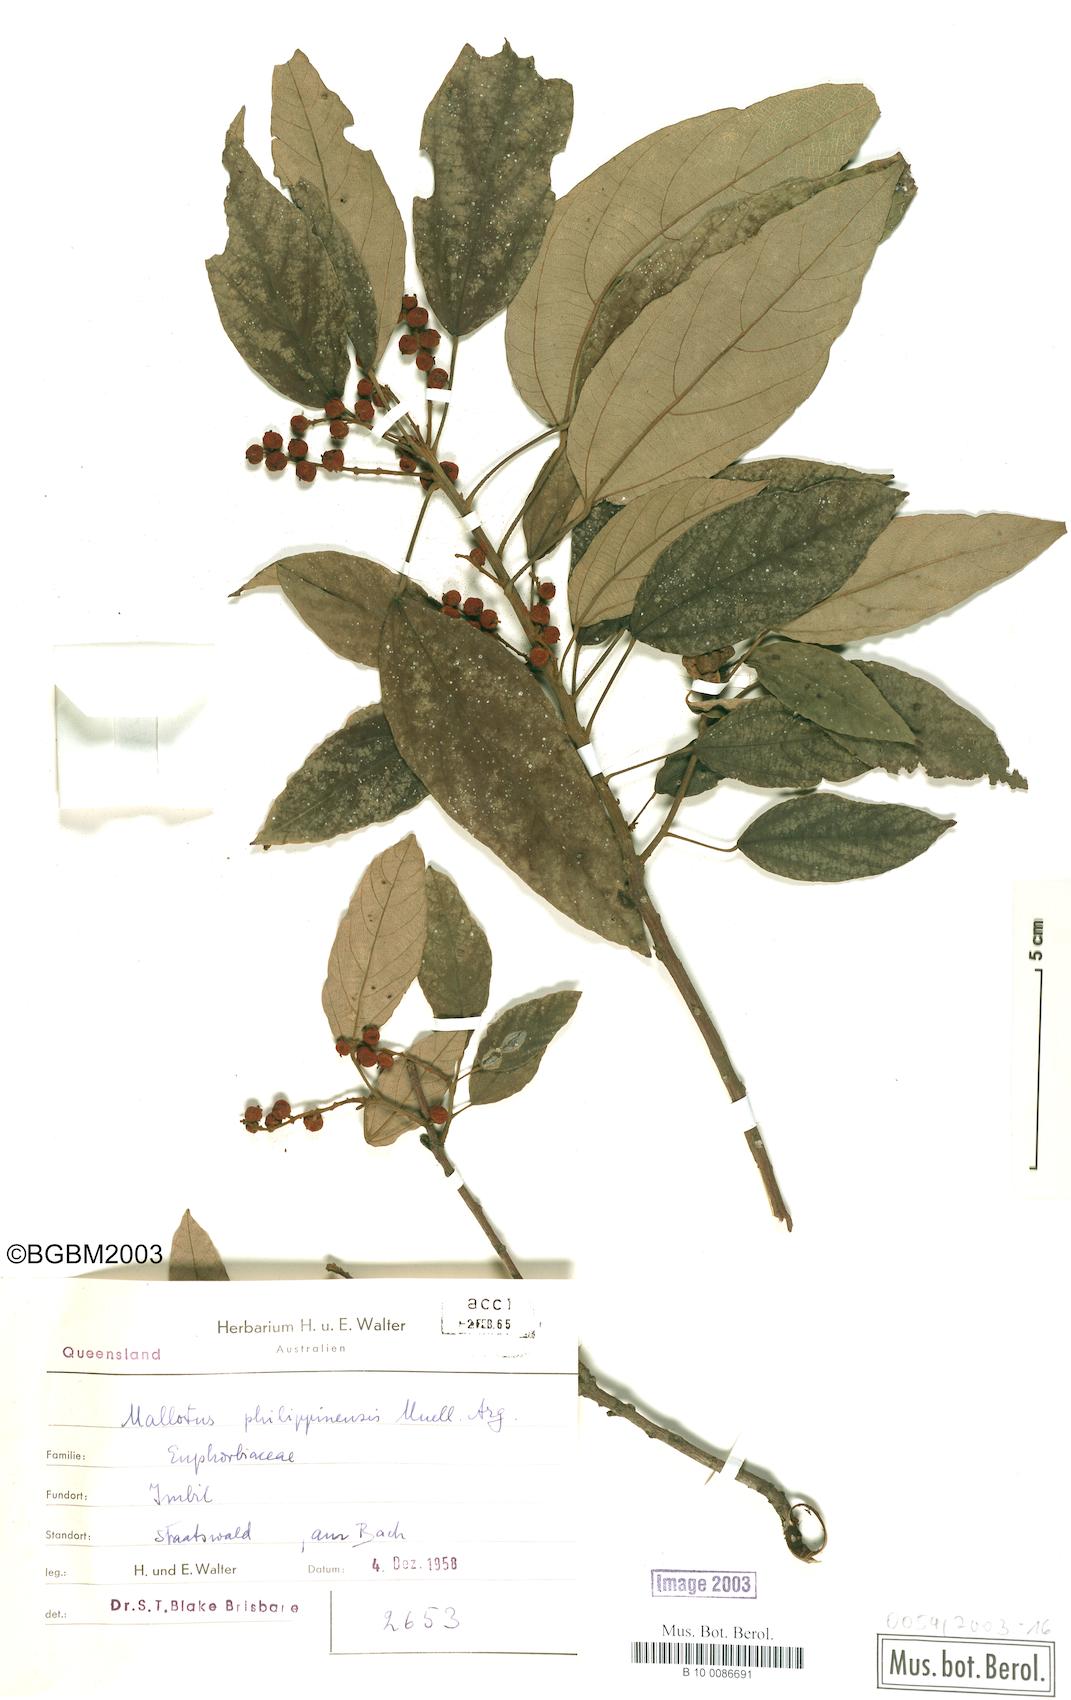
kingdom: Plantae
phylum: Tracheophyta
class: Magnoliopsida
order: Malpighiales
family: Euphorbiaceae
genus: Mallotus
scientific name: Mallotus philippensis
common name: Kamala tree
